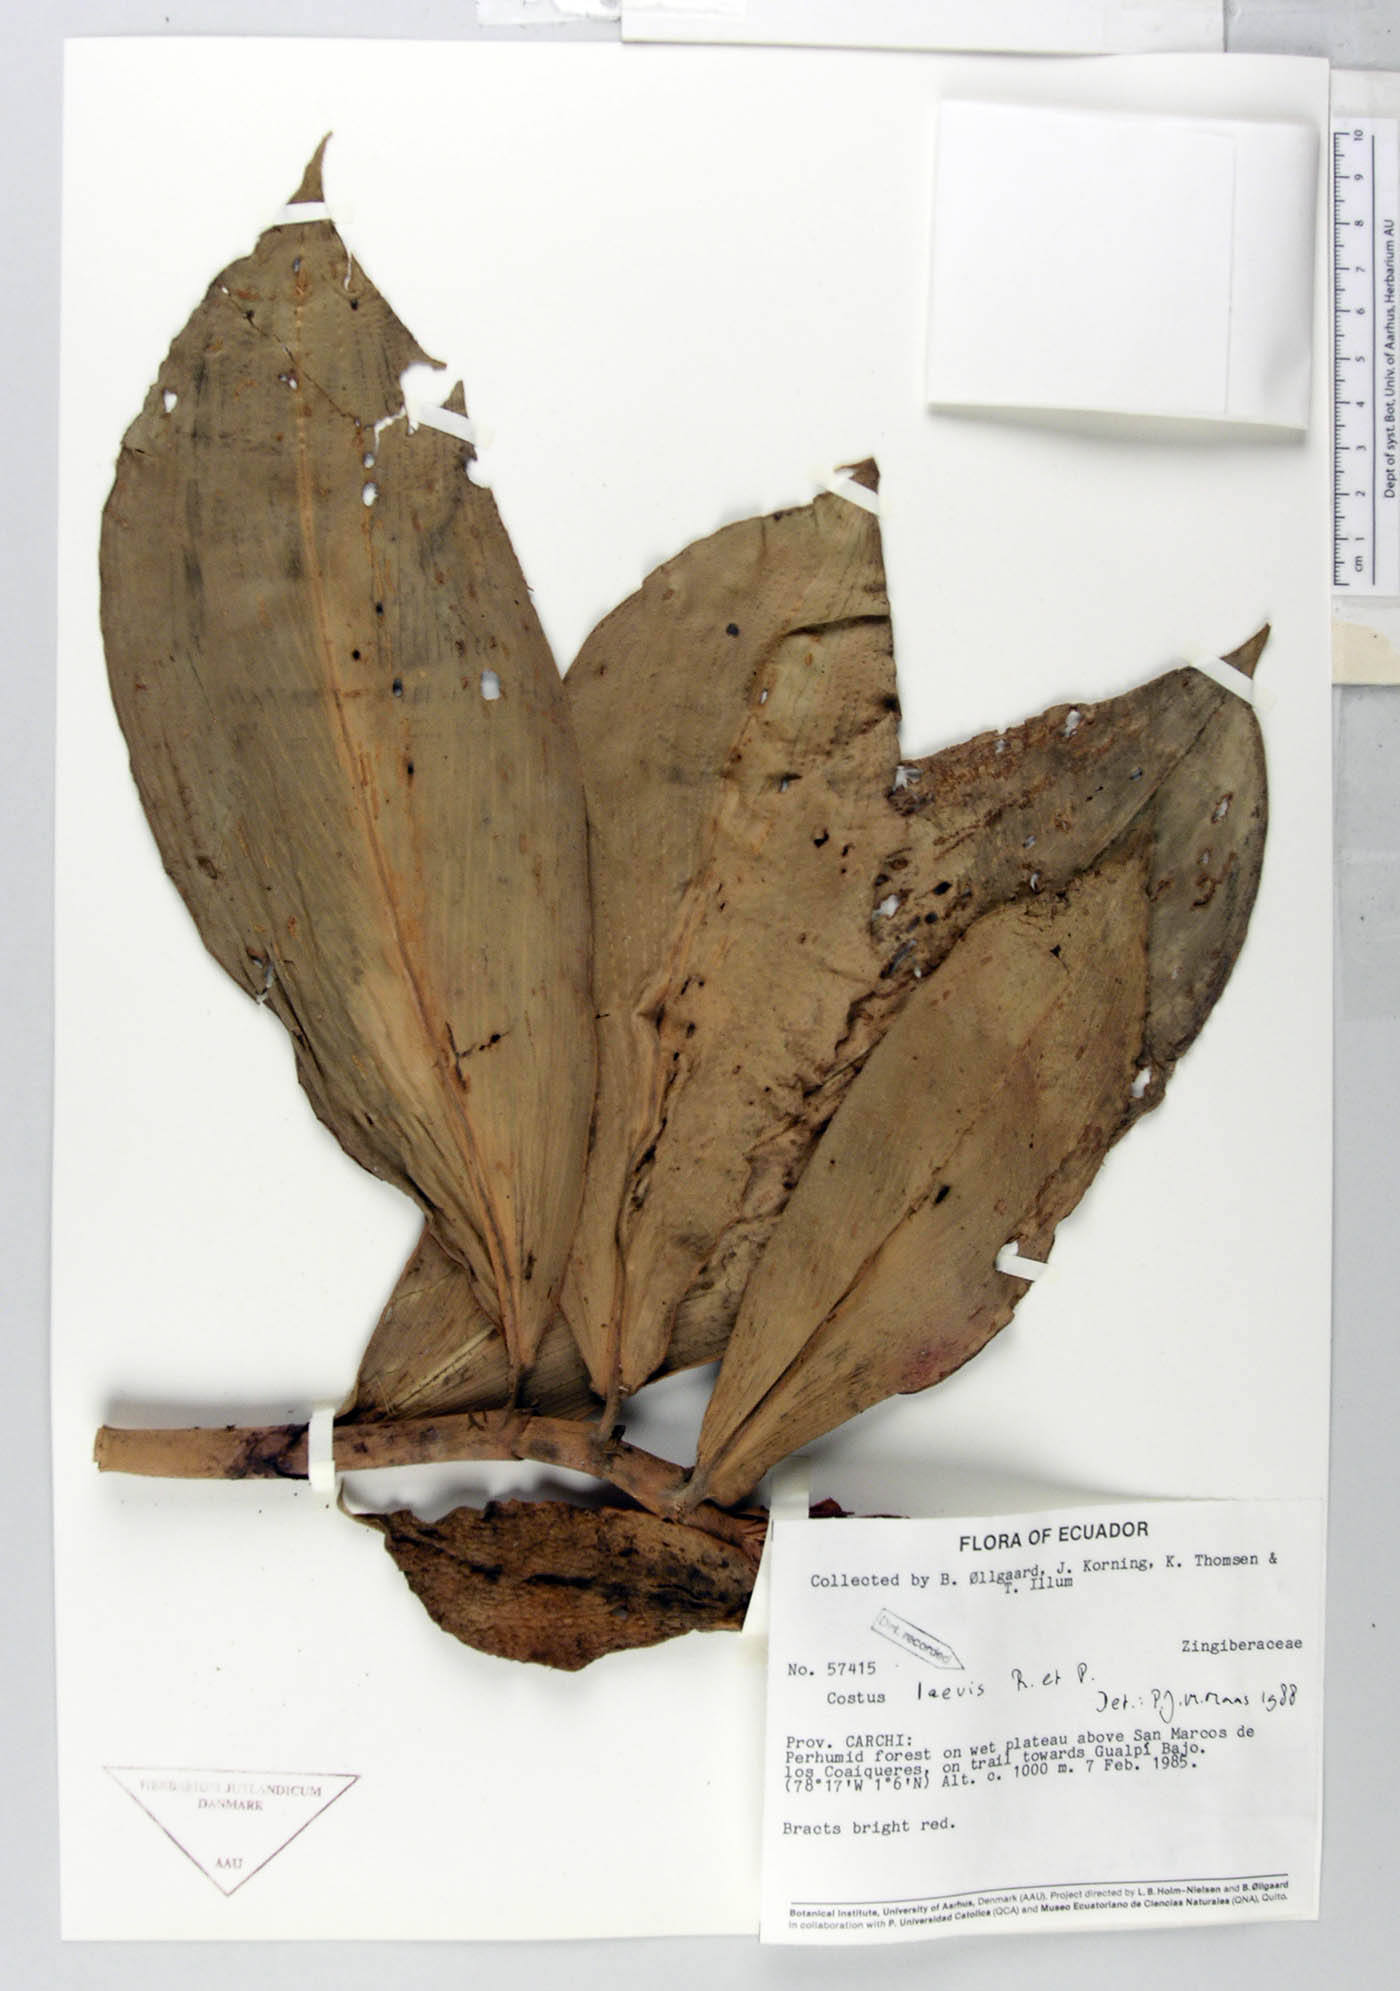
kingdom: Plantae
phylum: Tracheophyta
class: Liliopsida
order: Zingiberales
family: Costaceae
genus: Costus
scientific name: Costus laevis
